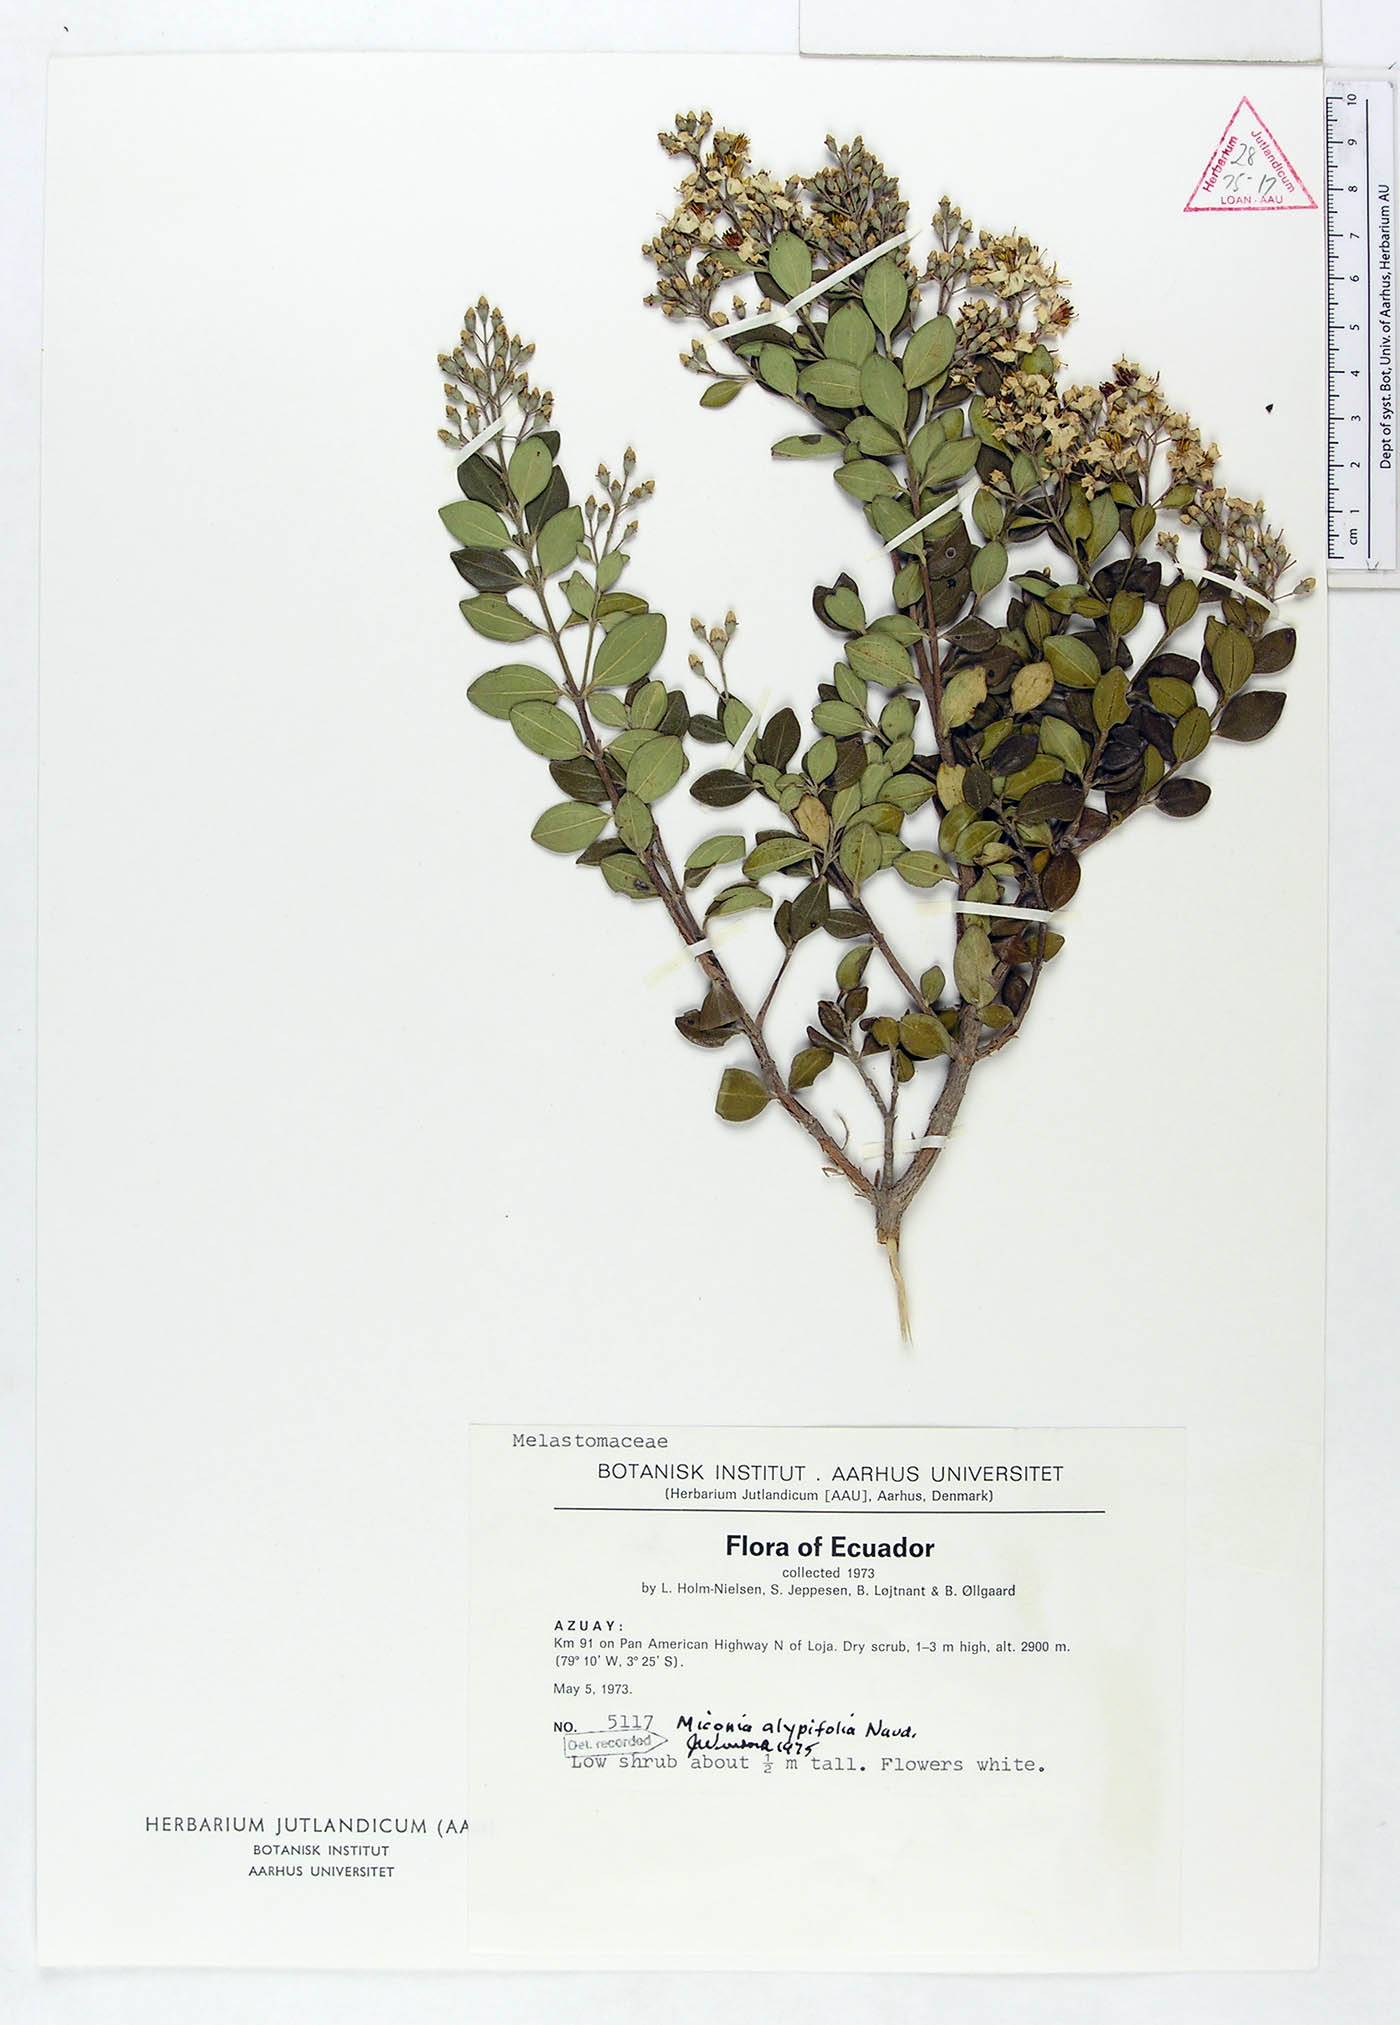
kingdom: Plantae
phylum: Tracheophyta
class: Magnoliopsida
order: Myrtales
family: Melastomataceae
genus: Miconia
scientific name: Miconia alypifolia
